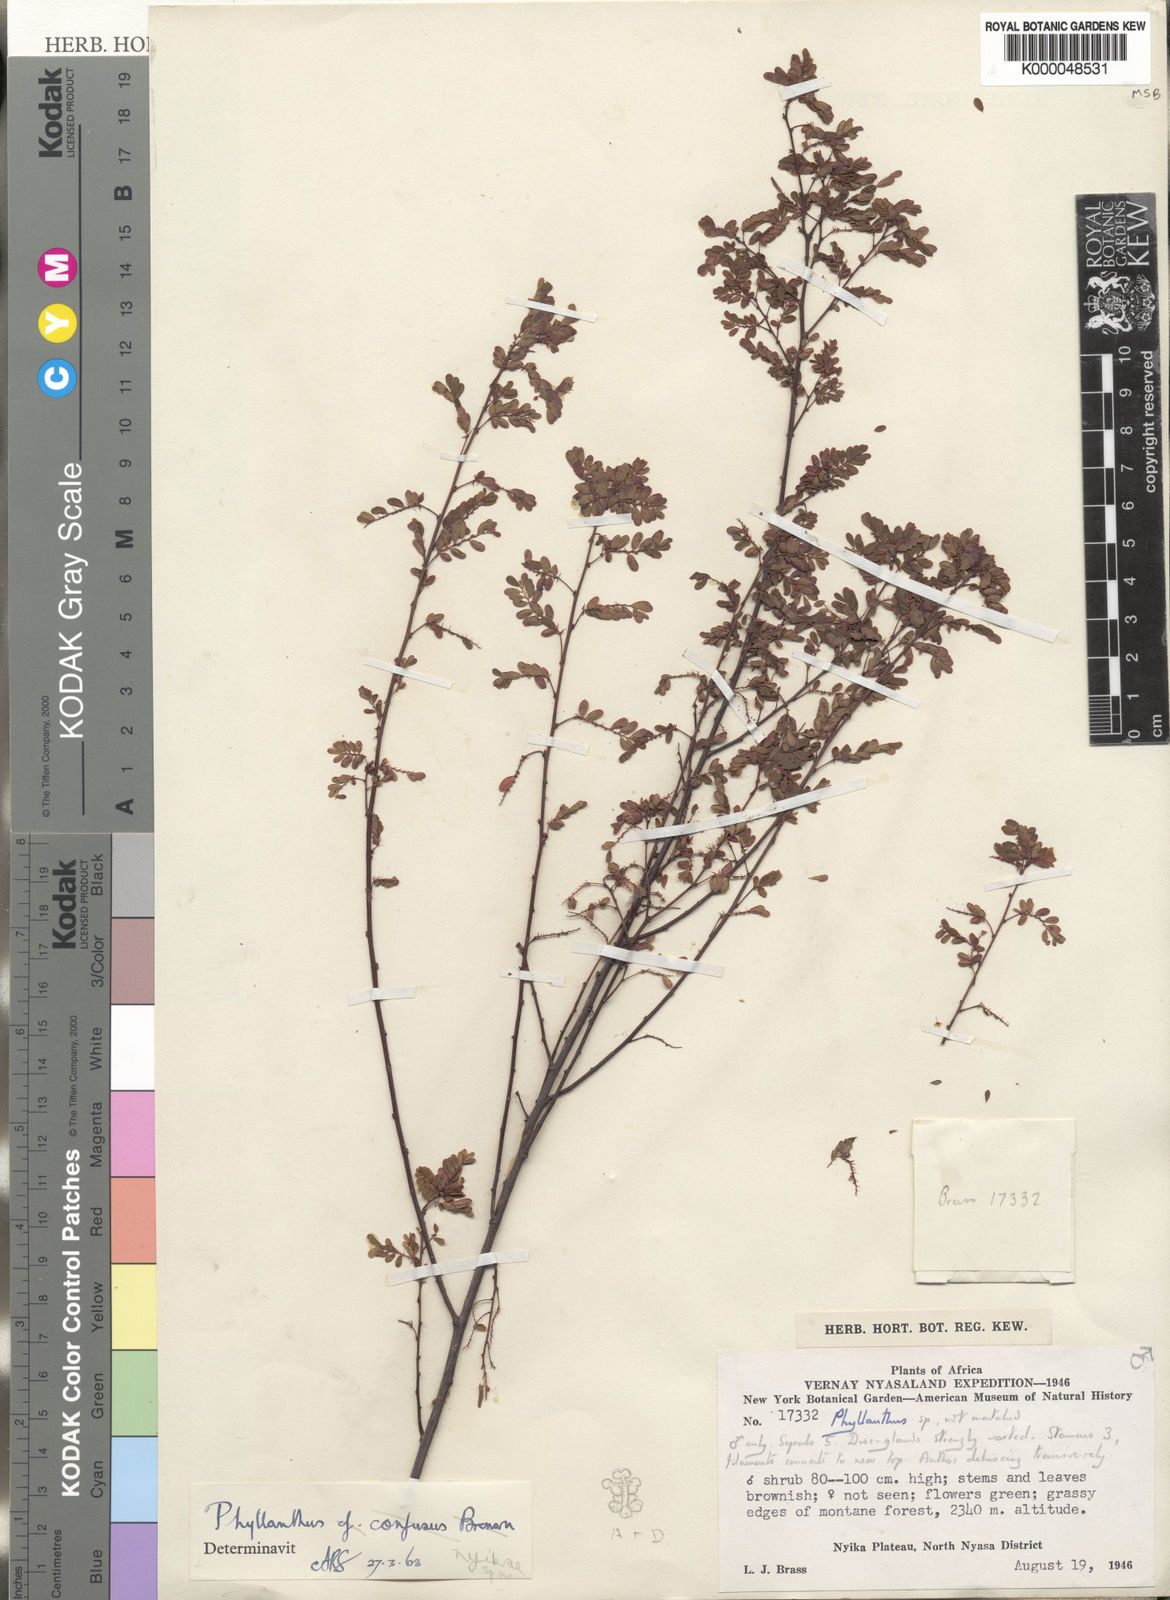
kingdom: Plantae
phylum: Tracheophyta
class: Magnoliopsida
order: Malpighiales
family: Phyllanthaceae
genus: Phyllanthus
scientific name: Phyllanthus nyikae
